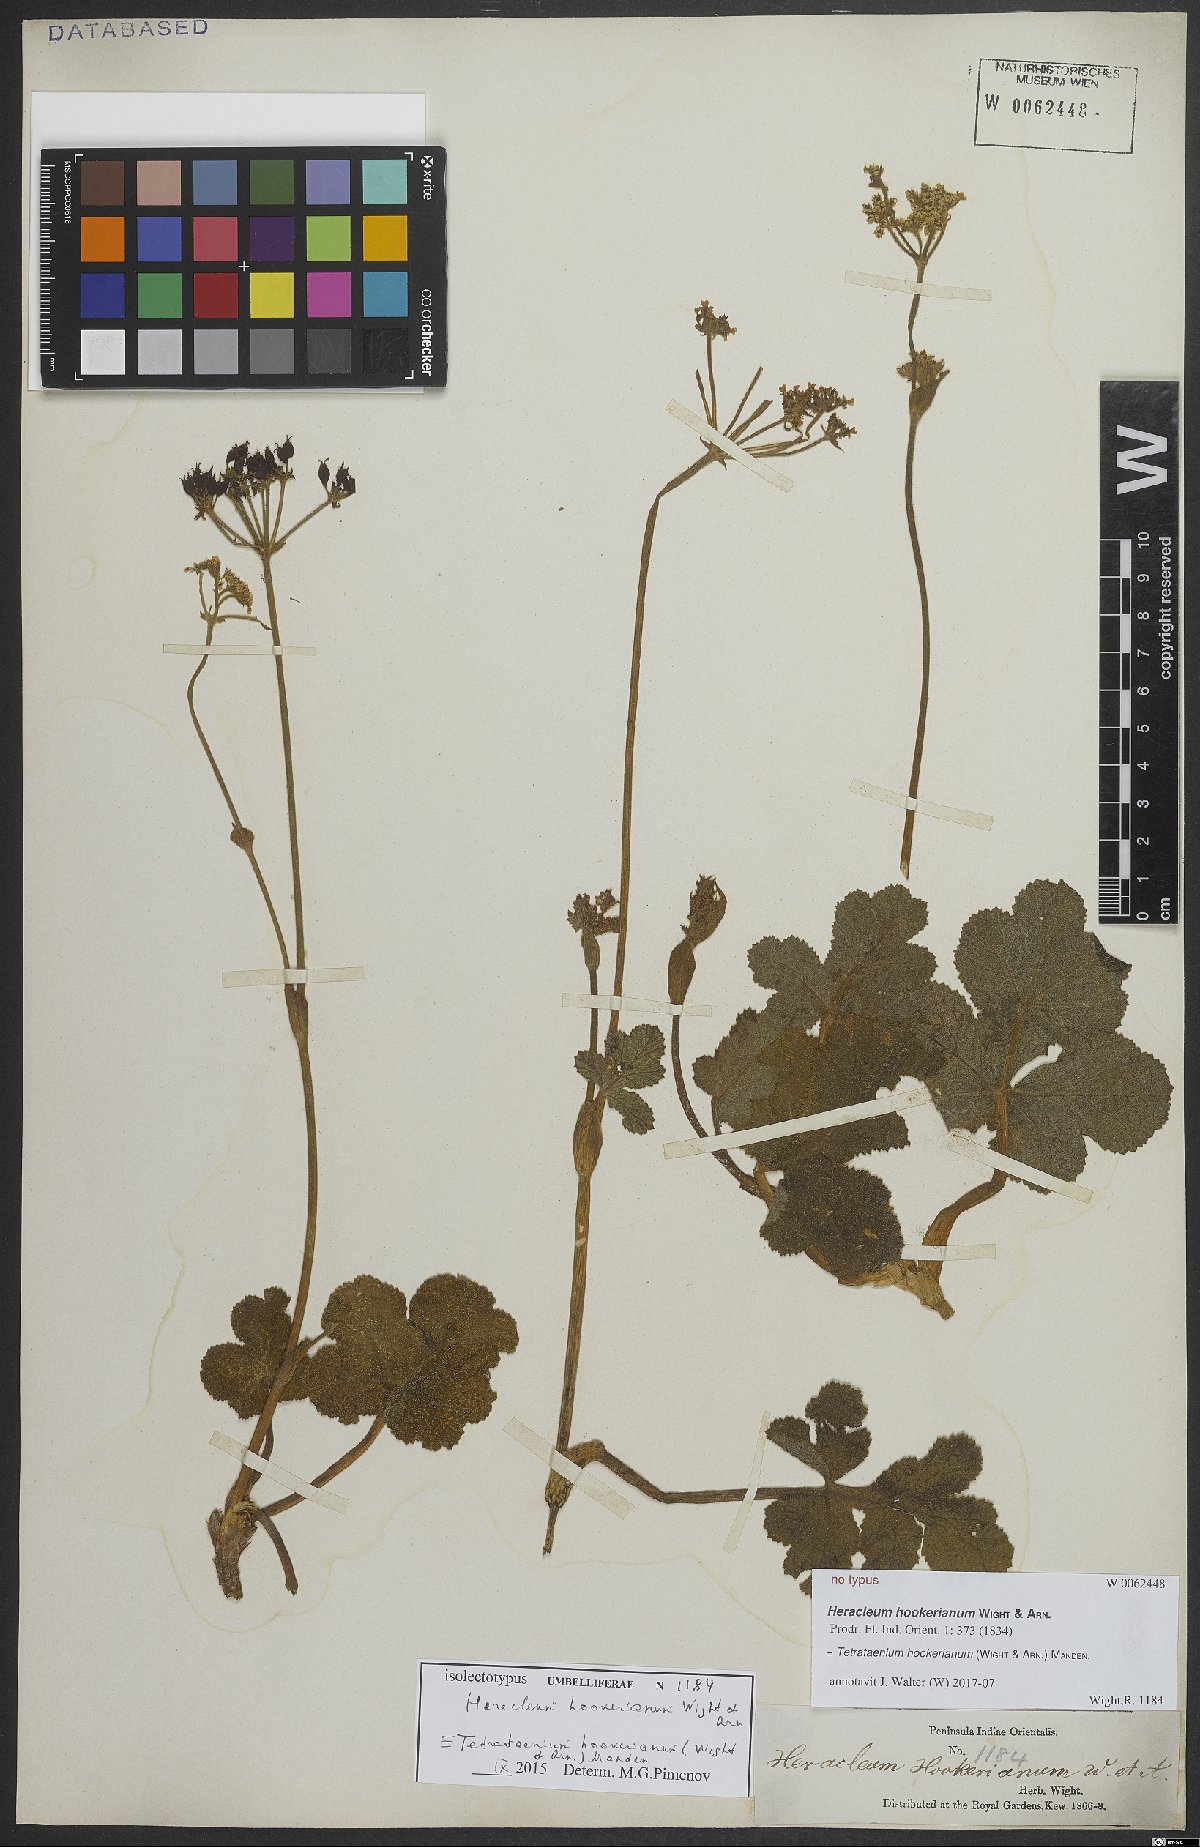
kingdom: Plantae
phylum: Tracheophyta
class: Magnoliopsida
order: Apiales
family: Apiaceae
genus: Tetrataenium
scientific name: Tetrataenium hookerianum
